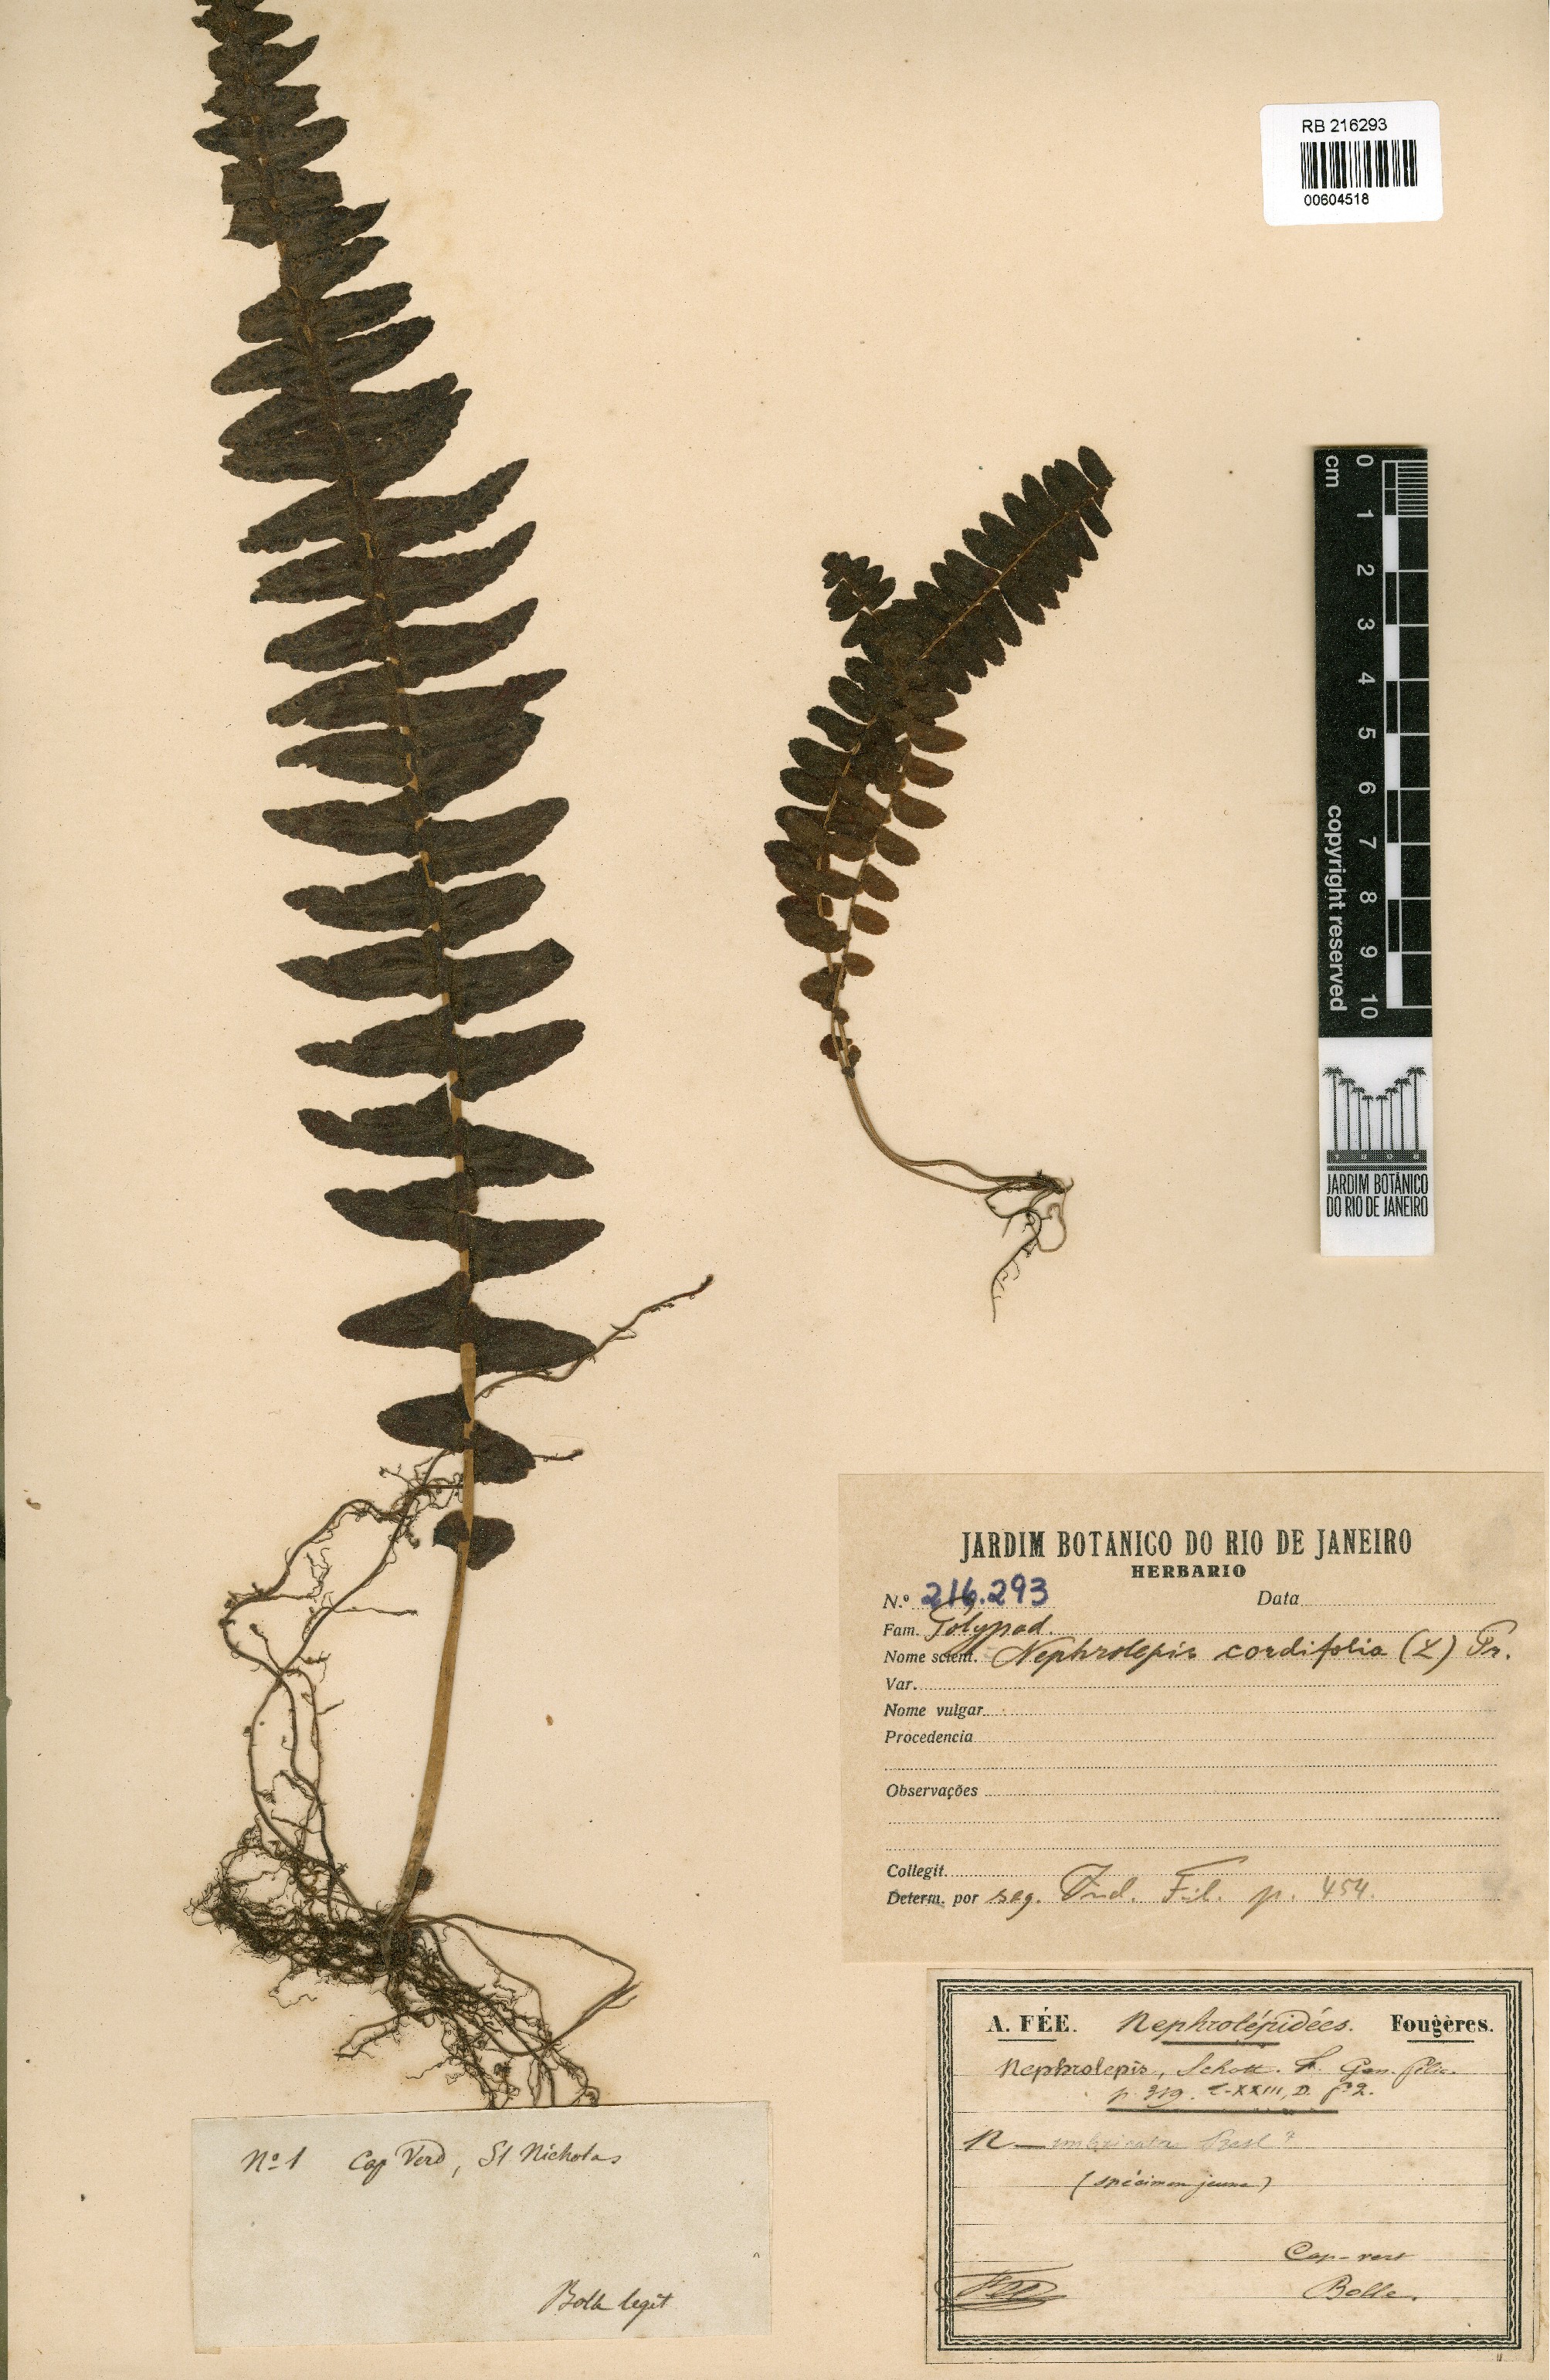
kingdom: Plantae
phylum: Tracheophyta
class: Polypodiopsida
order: Polypodiales
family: Nephrolepidaceae
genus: Nephrolepis
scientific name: Nephrolepis cordifolia
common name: Narrow swordfern
